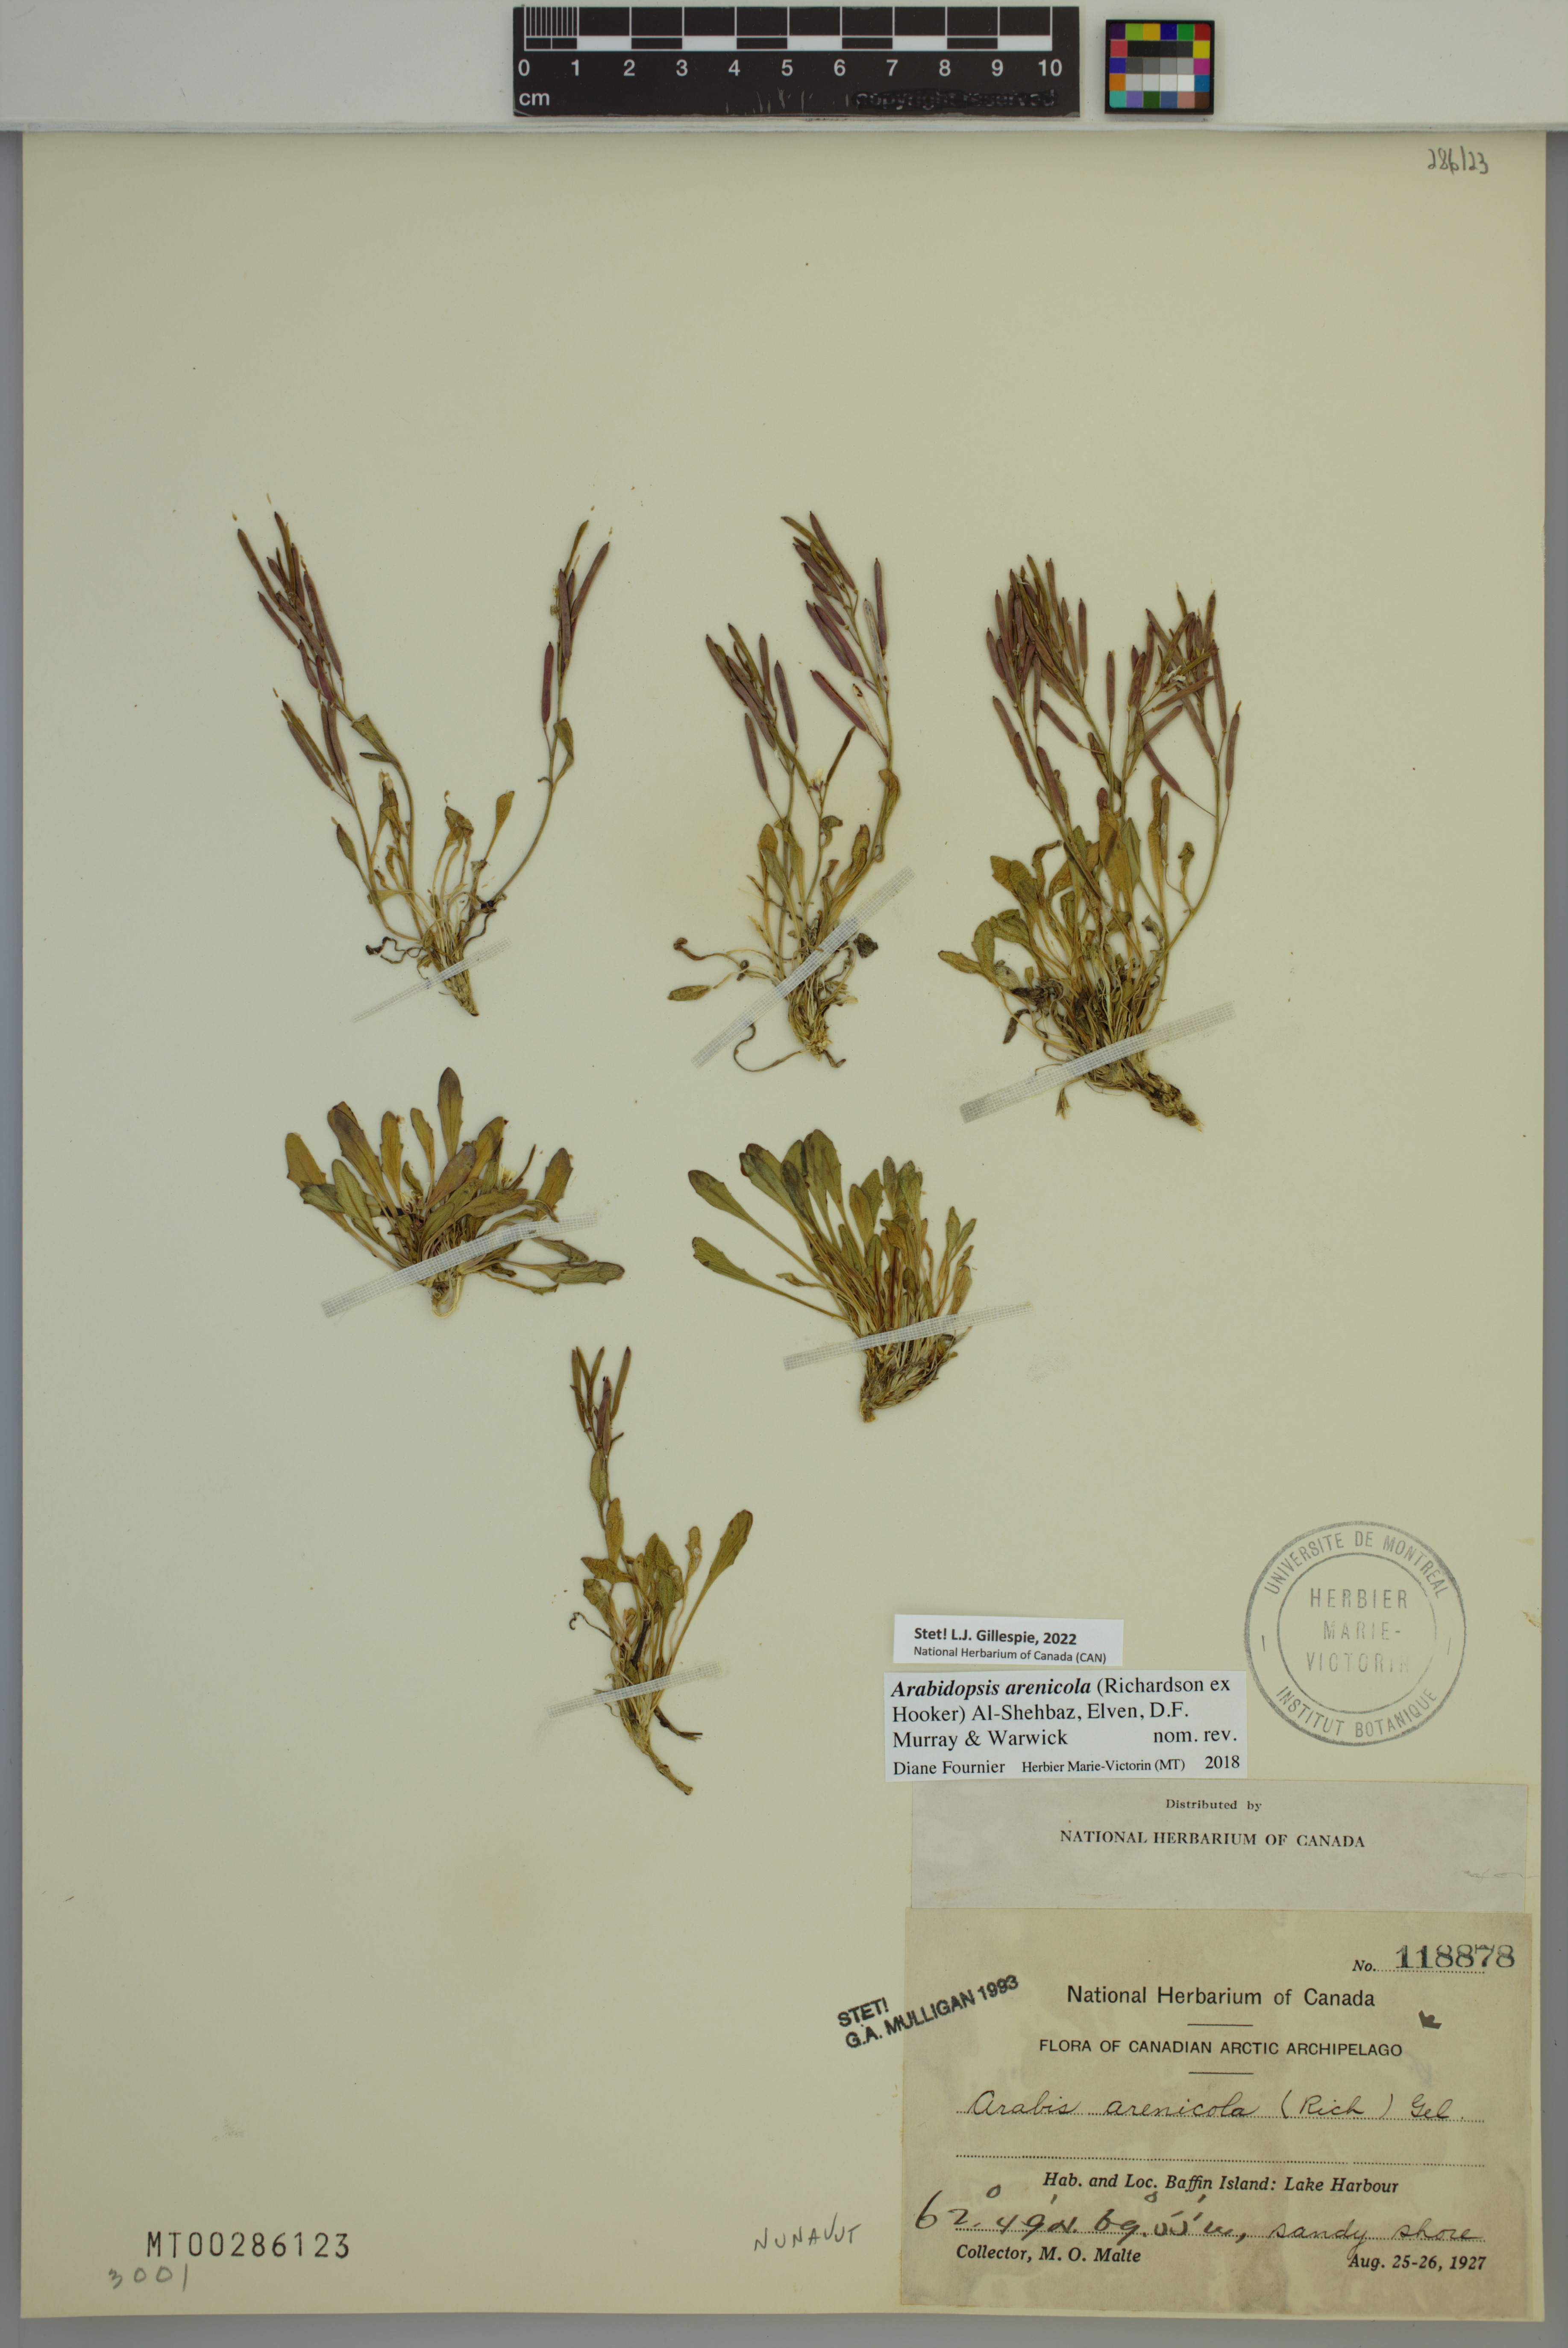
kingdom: Plantae
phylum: Tracheophyta
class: Magnoliopsida
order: Brassicales
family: Brassicaceae
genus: Arabidopsis
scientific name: Arabidopsis arenicola
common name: Arctic rockcress
